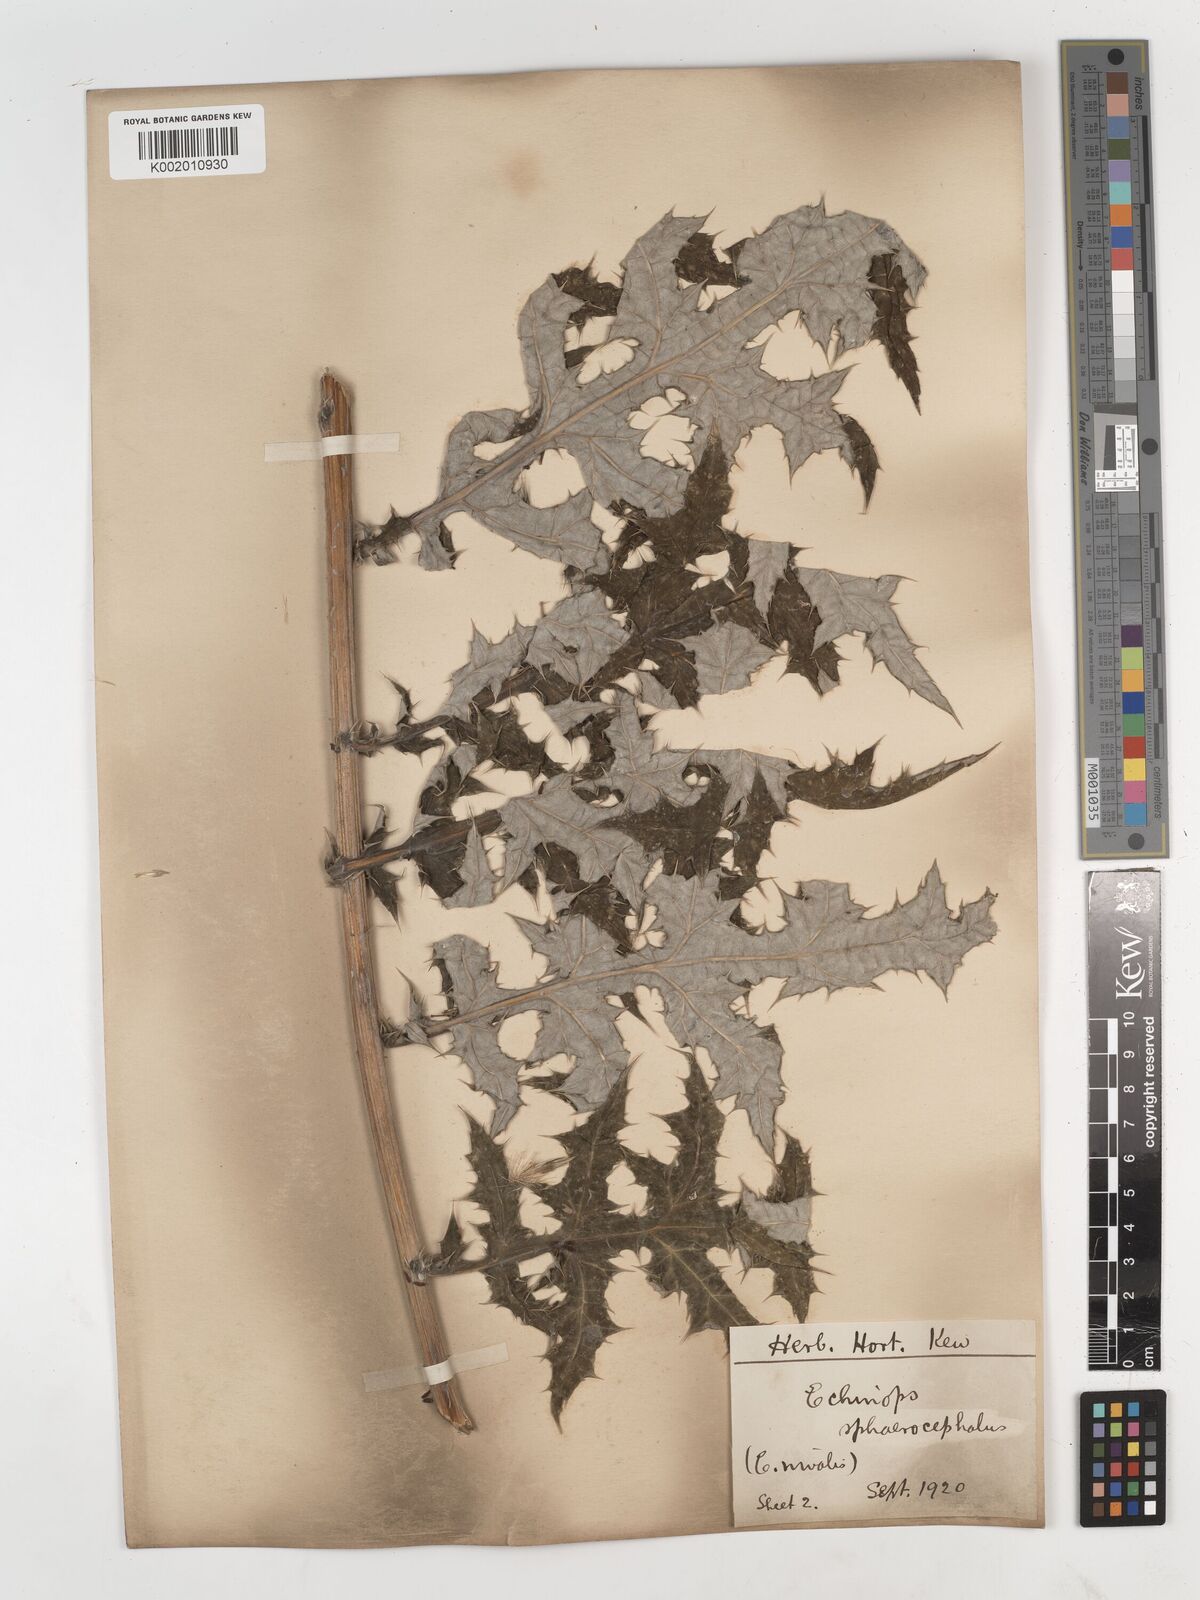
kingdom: Plantae
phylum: Tracheophyta
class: Magnoliopsida
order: Asterales
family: Asteraceae
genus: Echinops
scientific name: Echinops sphaerocephalus
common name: Glandular globe-thistle
